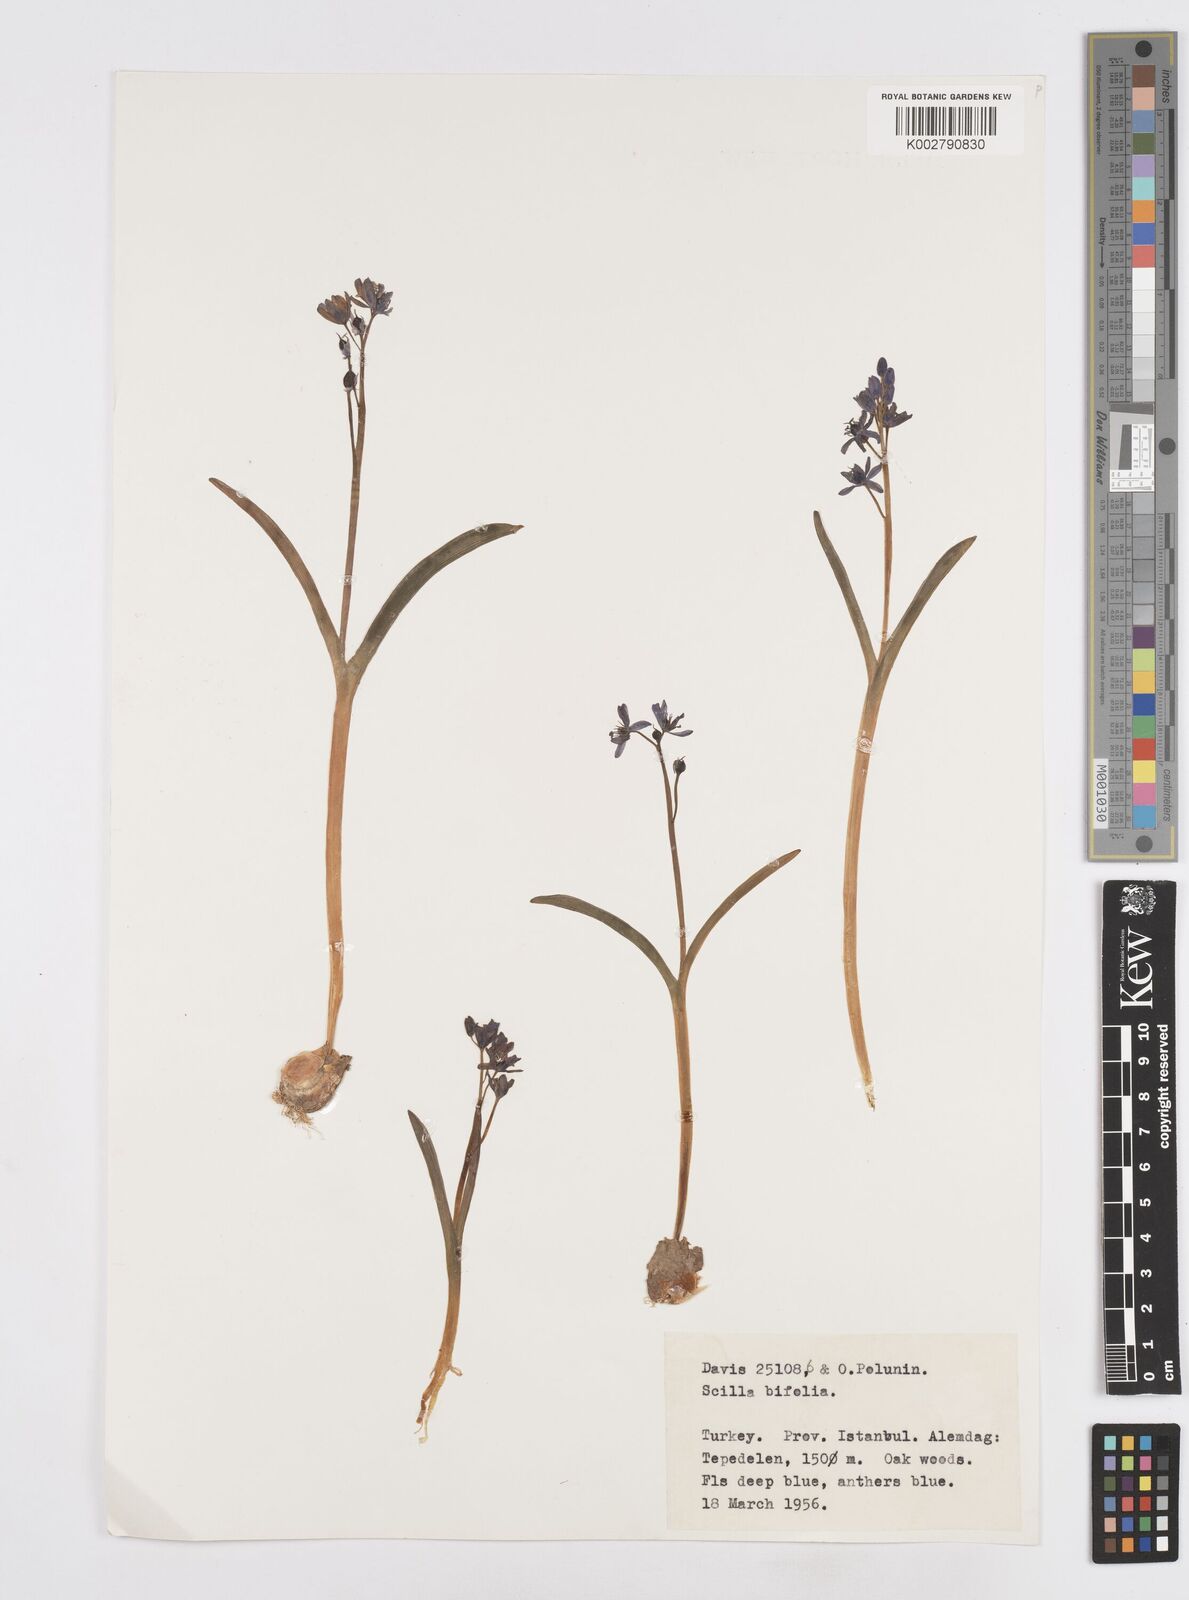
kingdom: Plantae
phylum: Tracheophyta
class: Liliopsida
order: Asparagales
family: Asparagaceae
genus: Scilla
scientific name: Scilla bifolia
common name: Alpine squill
